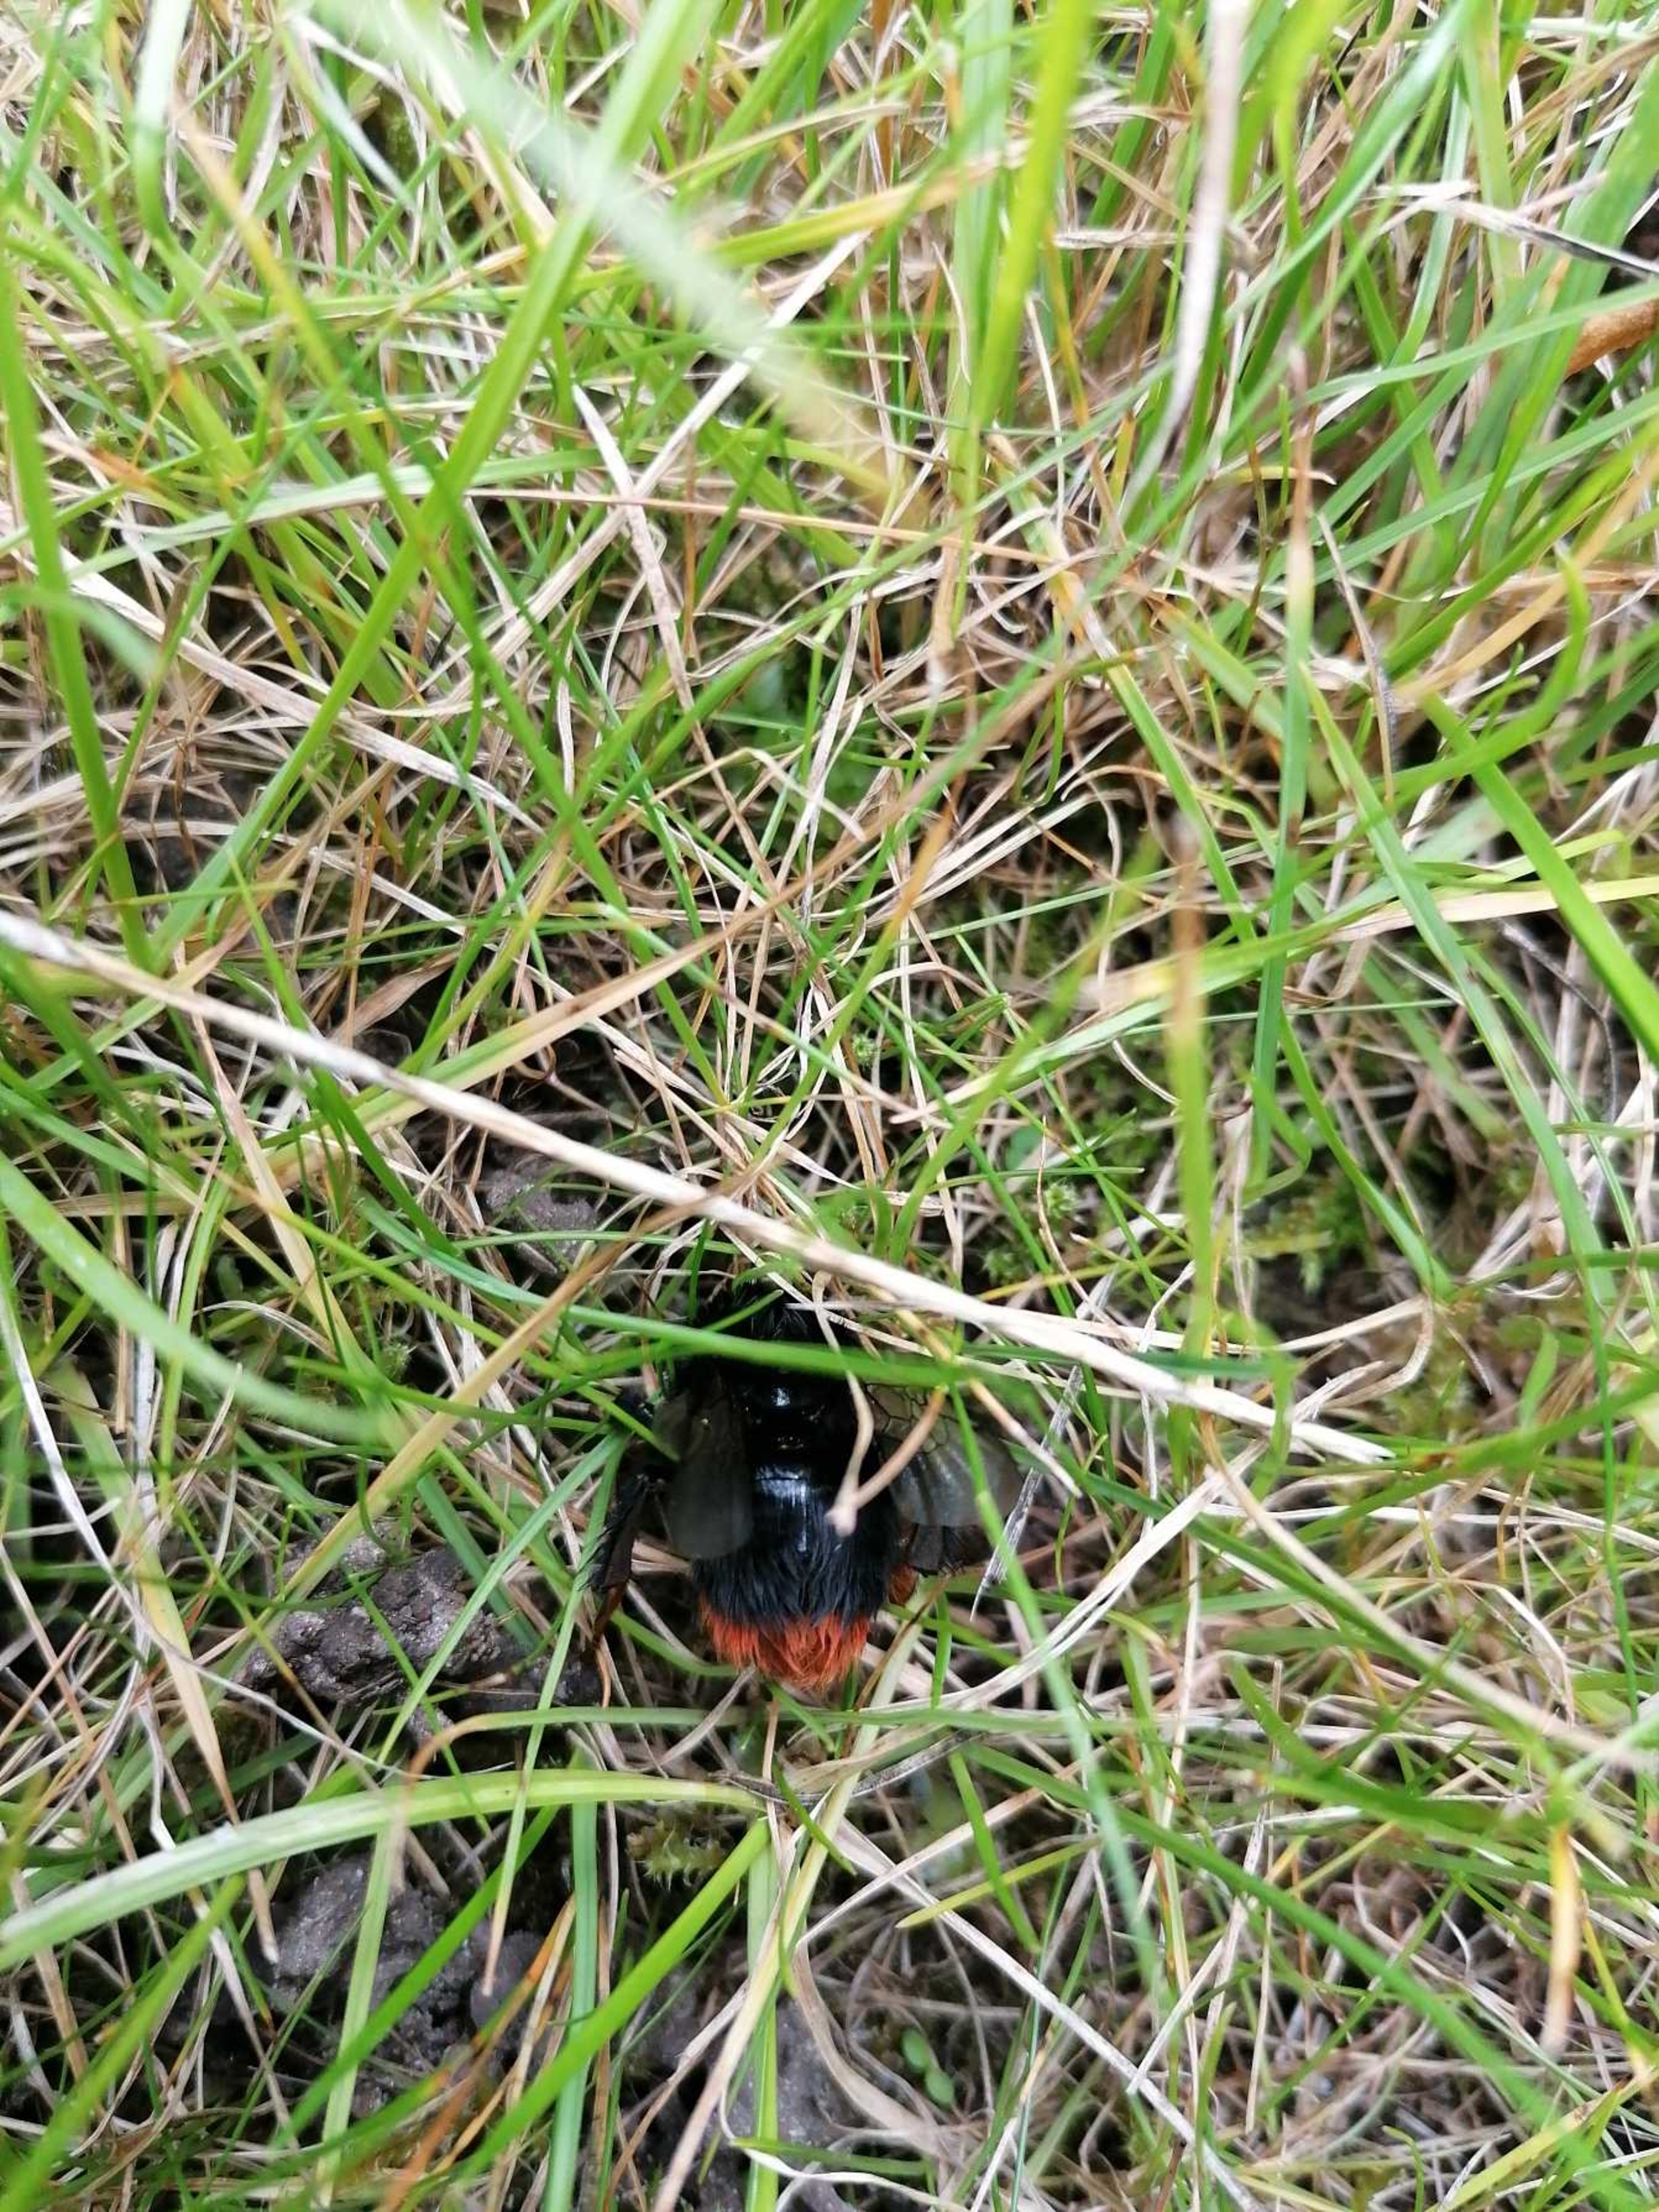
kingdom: Animalia
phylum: Arthropoda
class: Insecta
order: Hymenoptera
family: Apidae
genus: Bombus
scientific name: Bombus lapidarius
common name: Stenhumle
